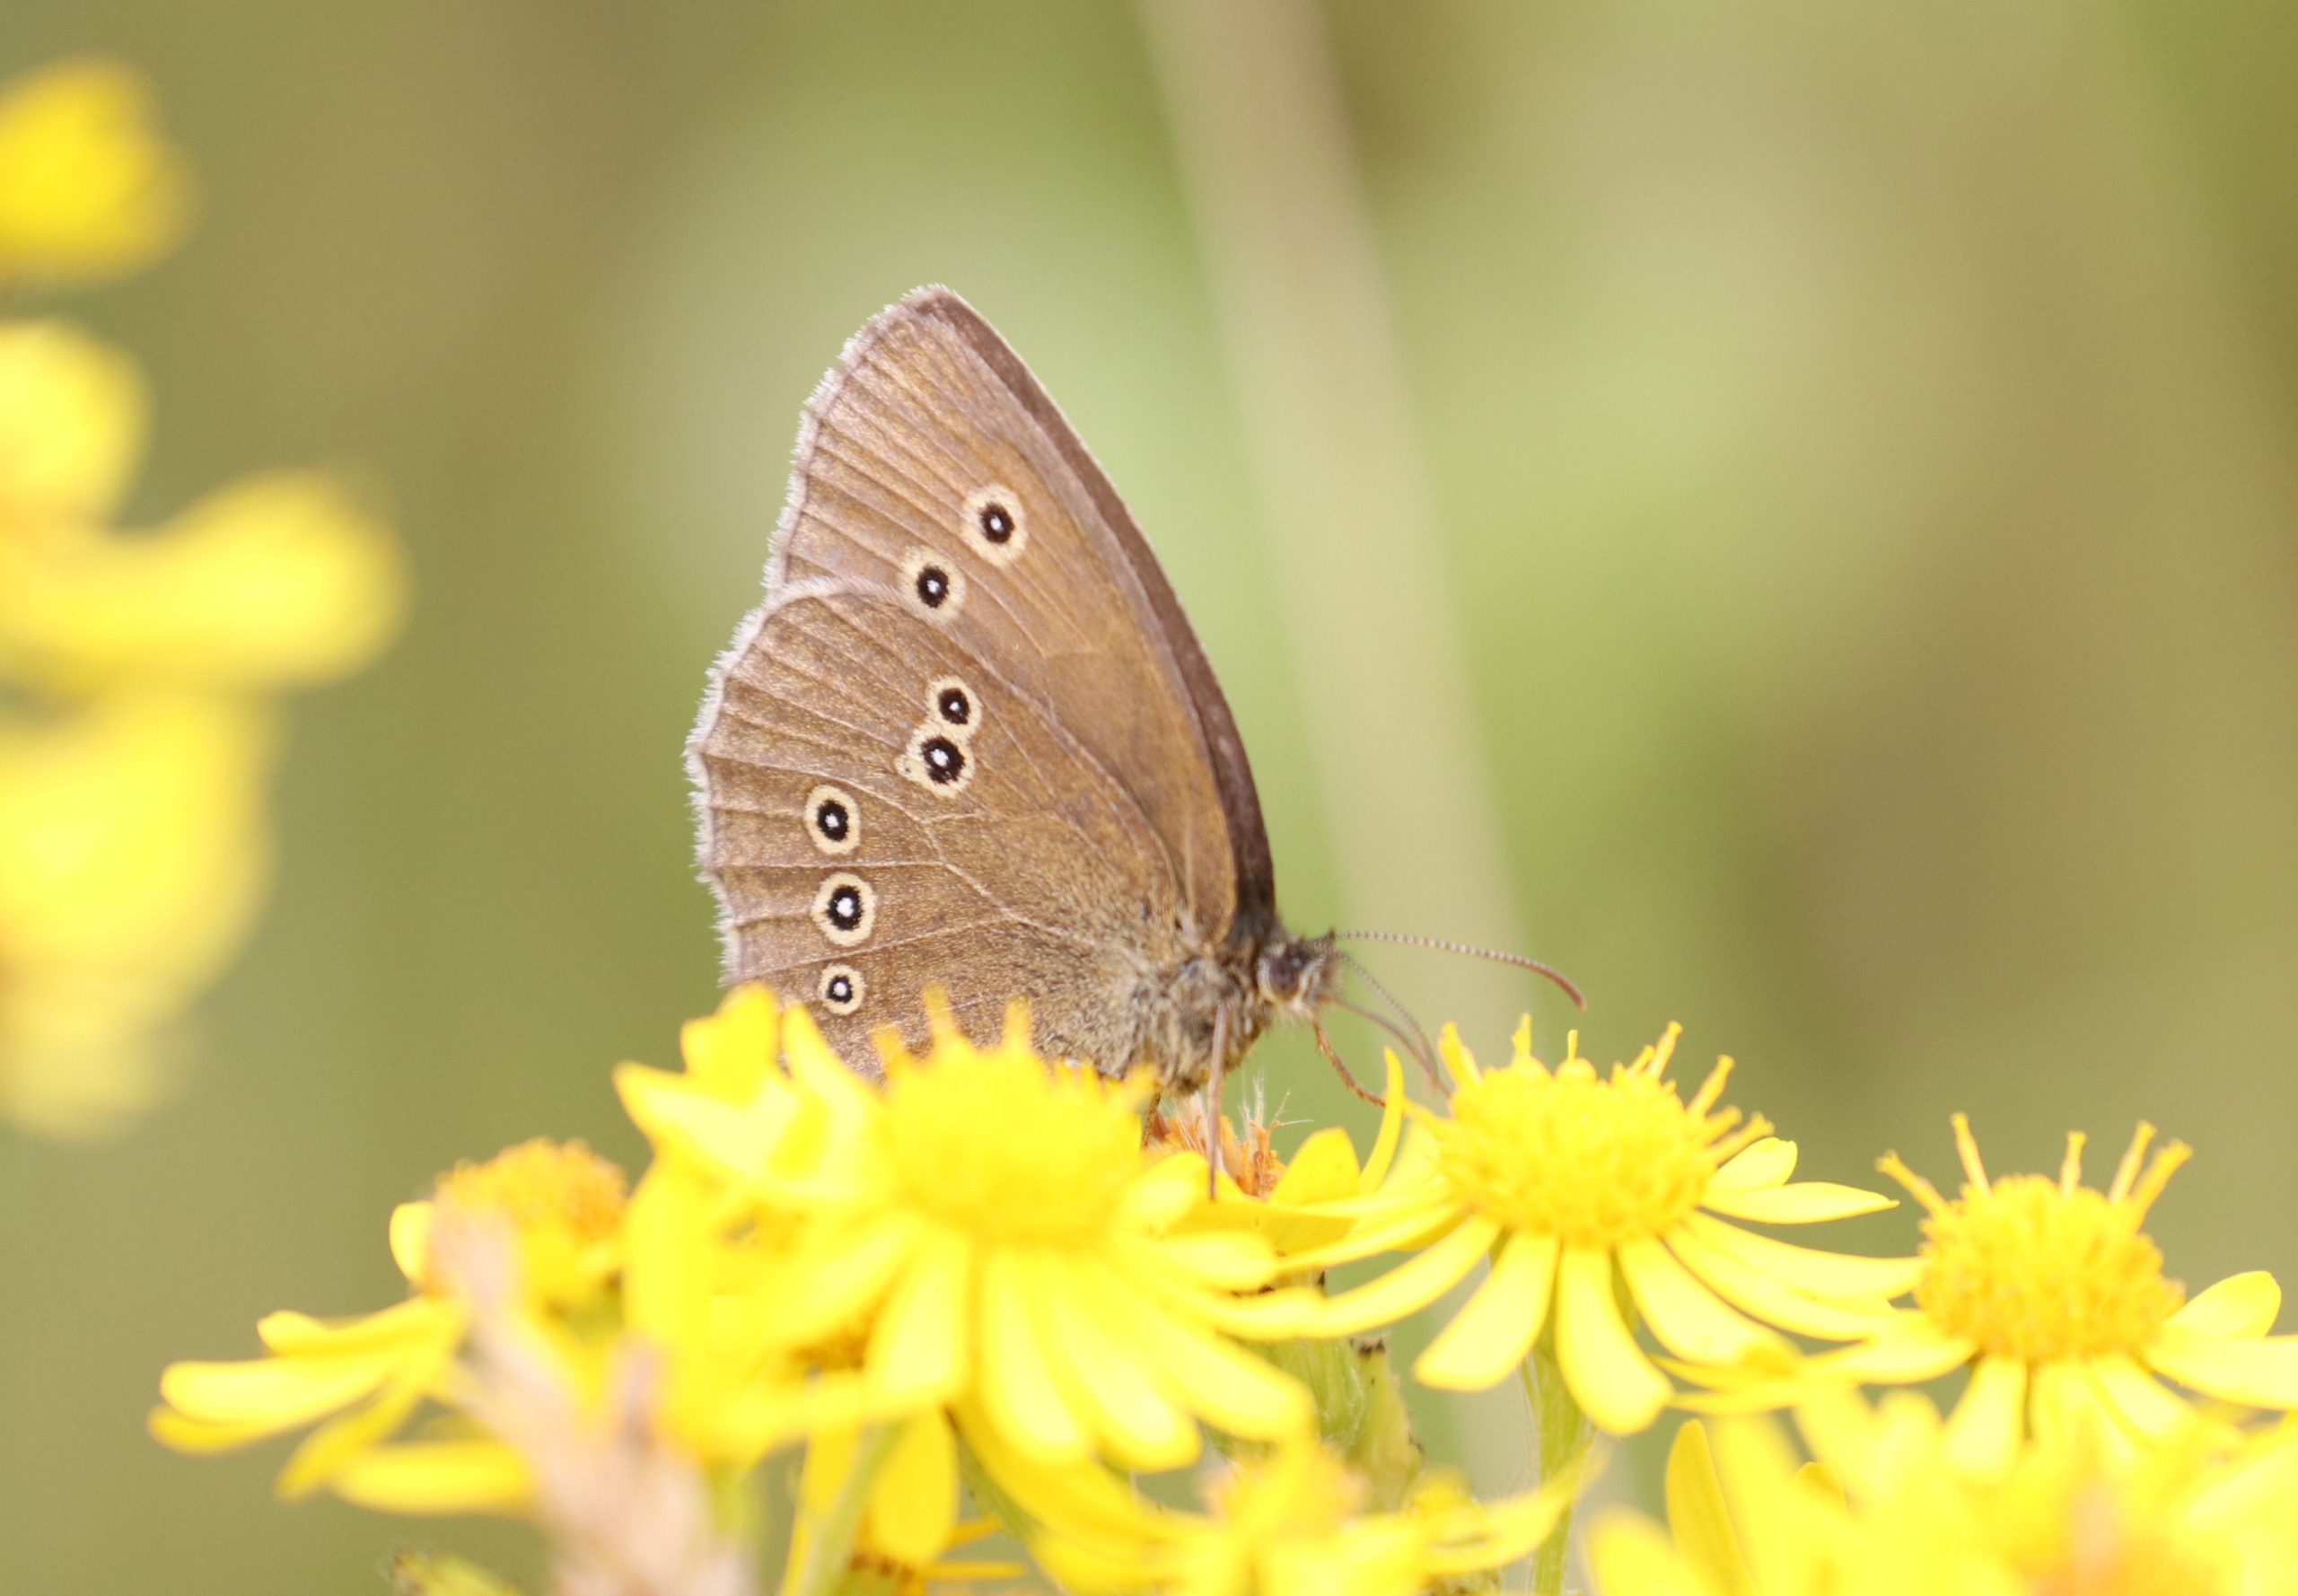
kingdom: Animalia
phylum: Arthropoda
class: Insecta
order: Lepidoptera
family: Nymphalidae
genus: Aphantopus
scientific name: Aphantopus hyperantus
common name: Engrandøje
